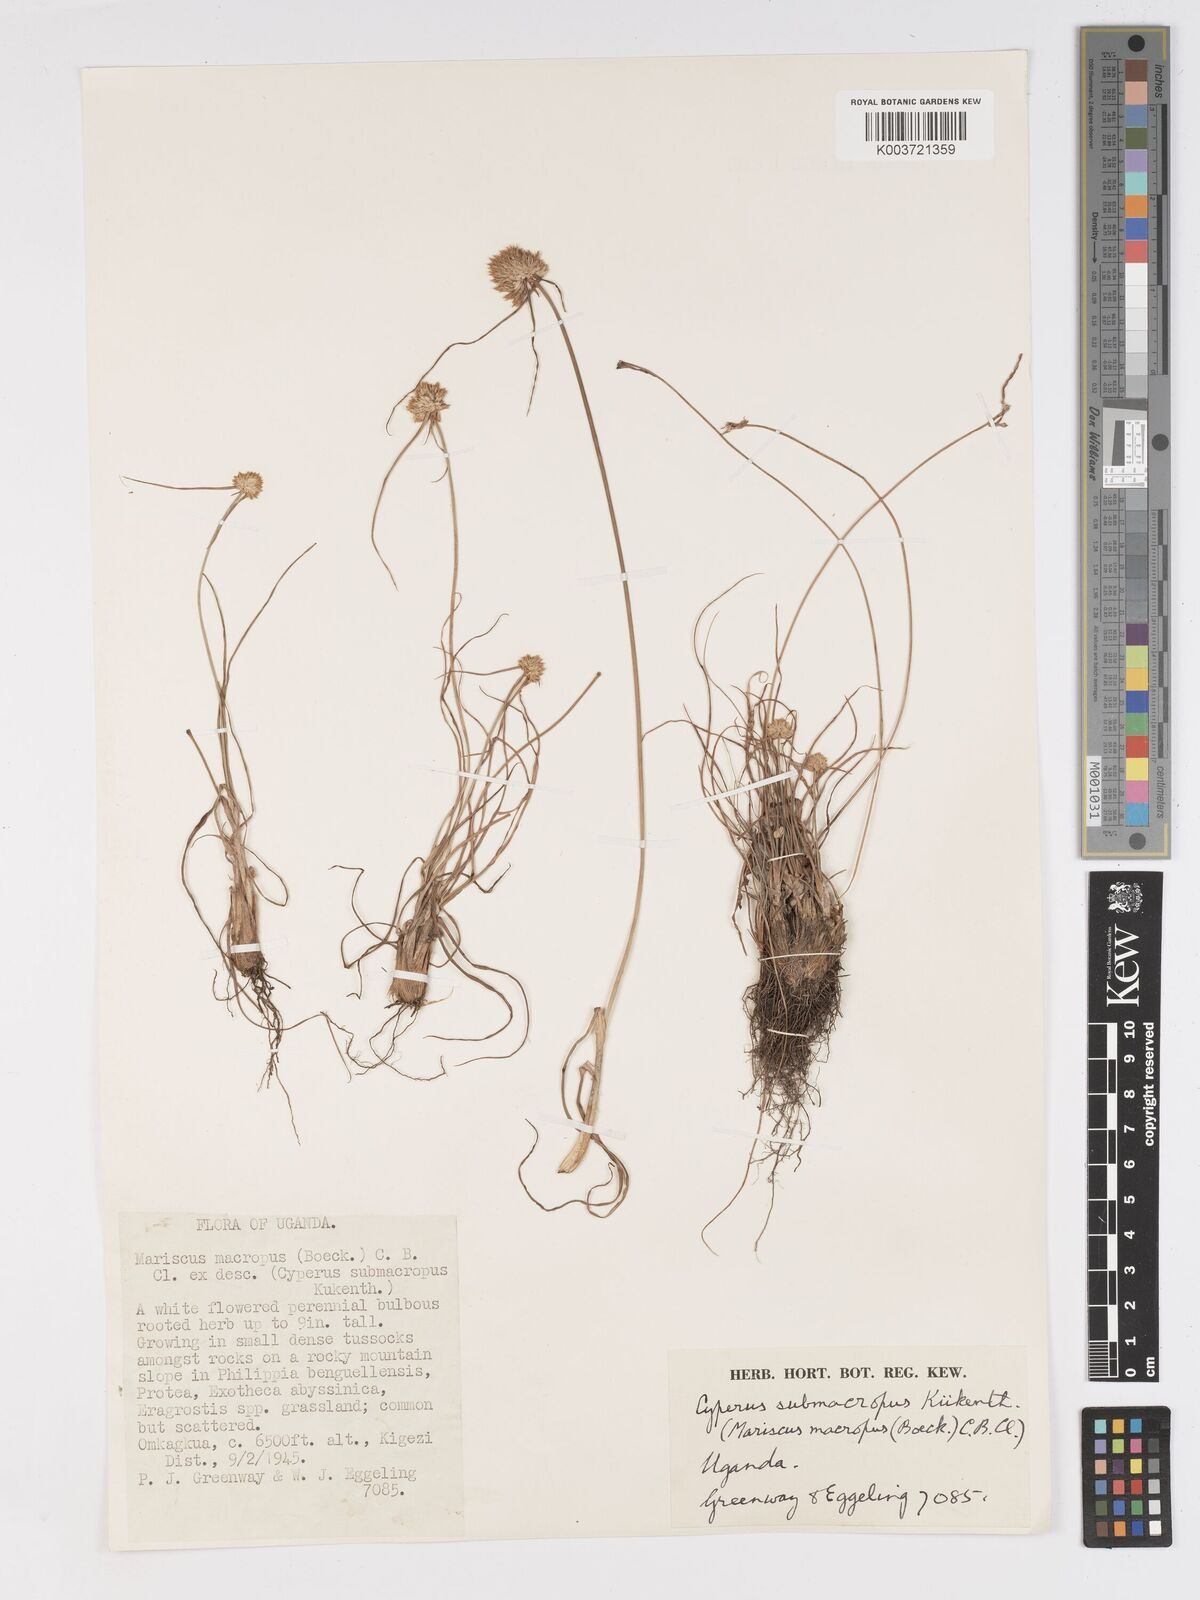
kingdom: Plantae
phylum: Tracheophyta
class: Liliopsida
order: Poales
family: Cyperaceae
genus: Cyperus
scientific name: Cyperus mollipes
